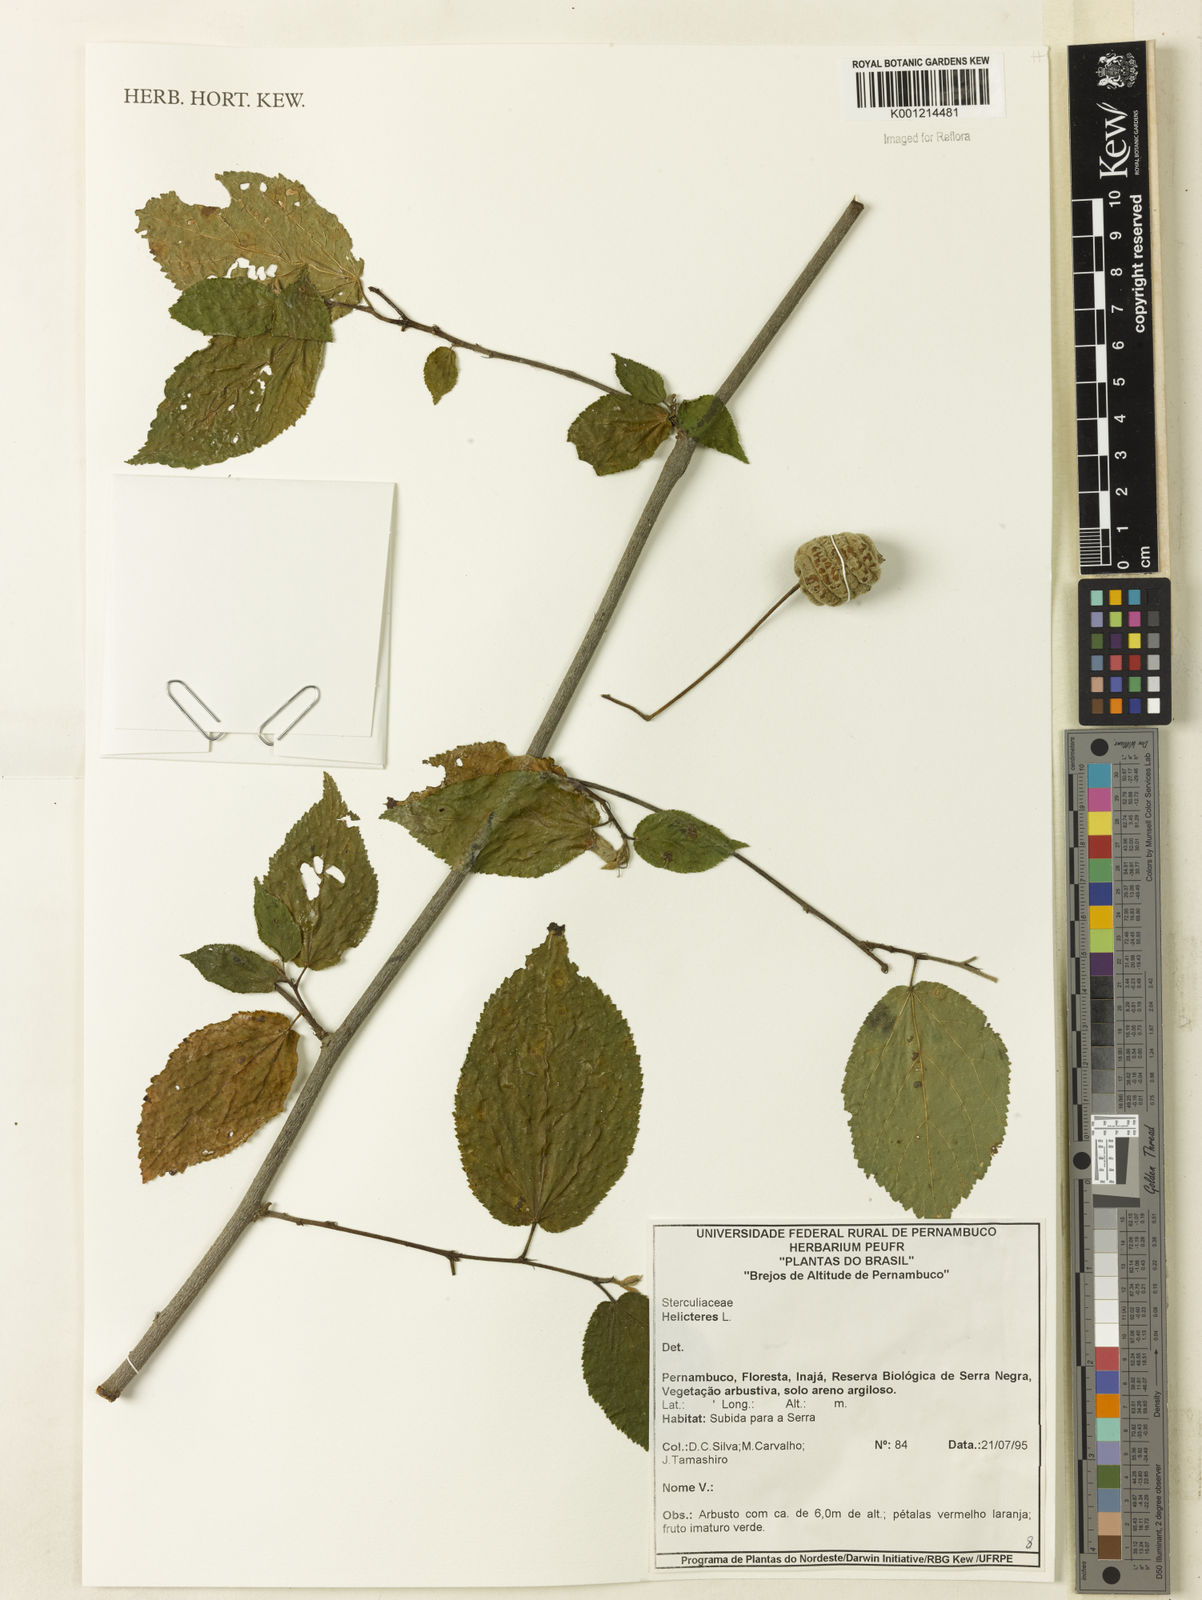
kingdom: Plantae
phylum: Tracheophyta
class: Magnoliopsida
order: Malvales
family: Malvaceae
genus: Helicteres
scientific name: Helicteres
